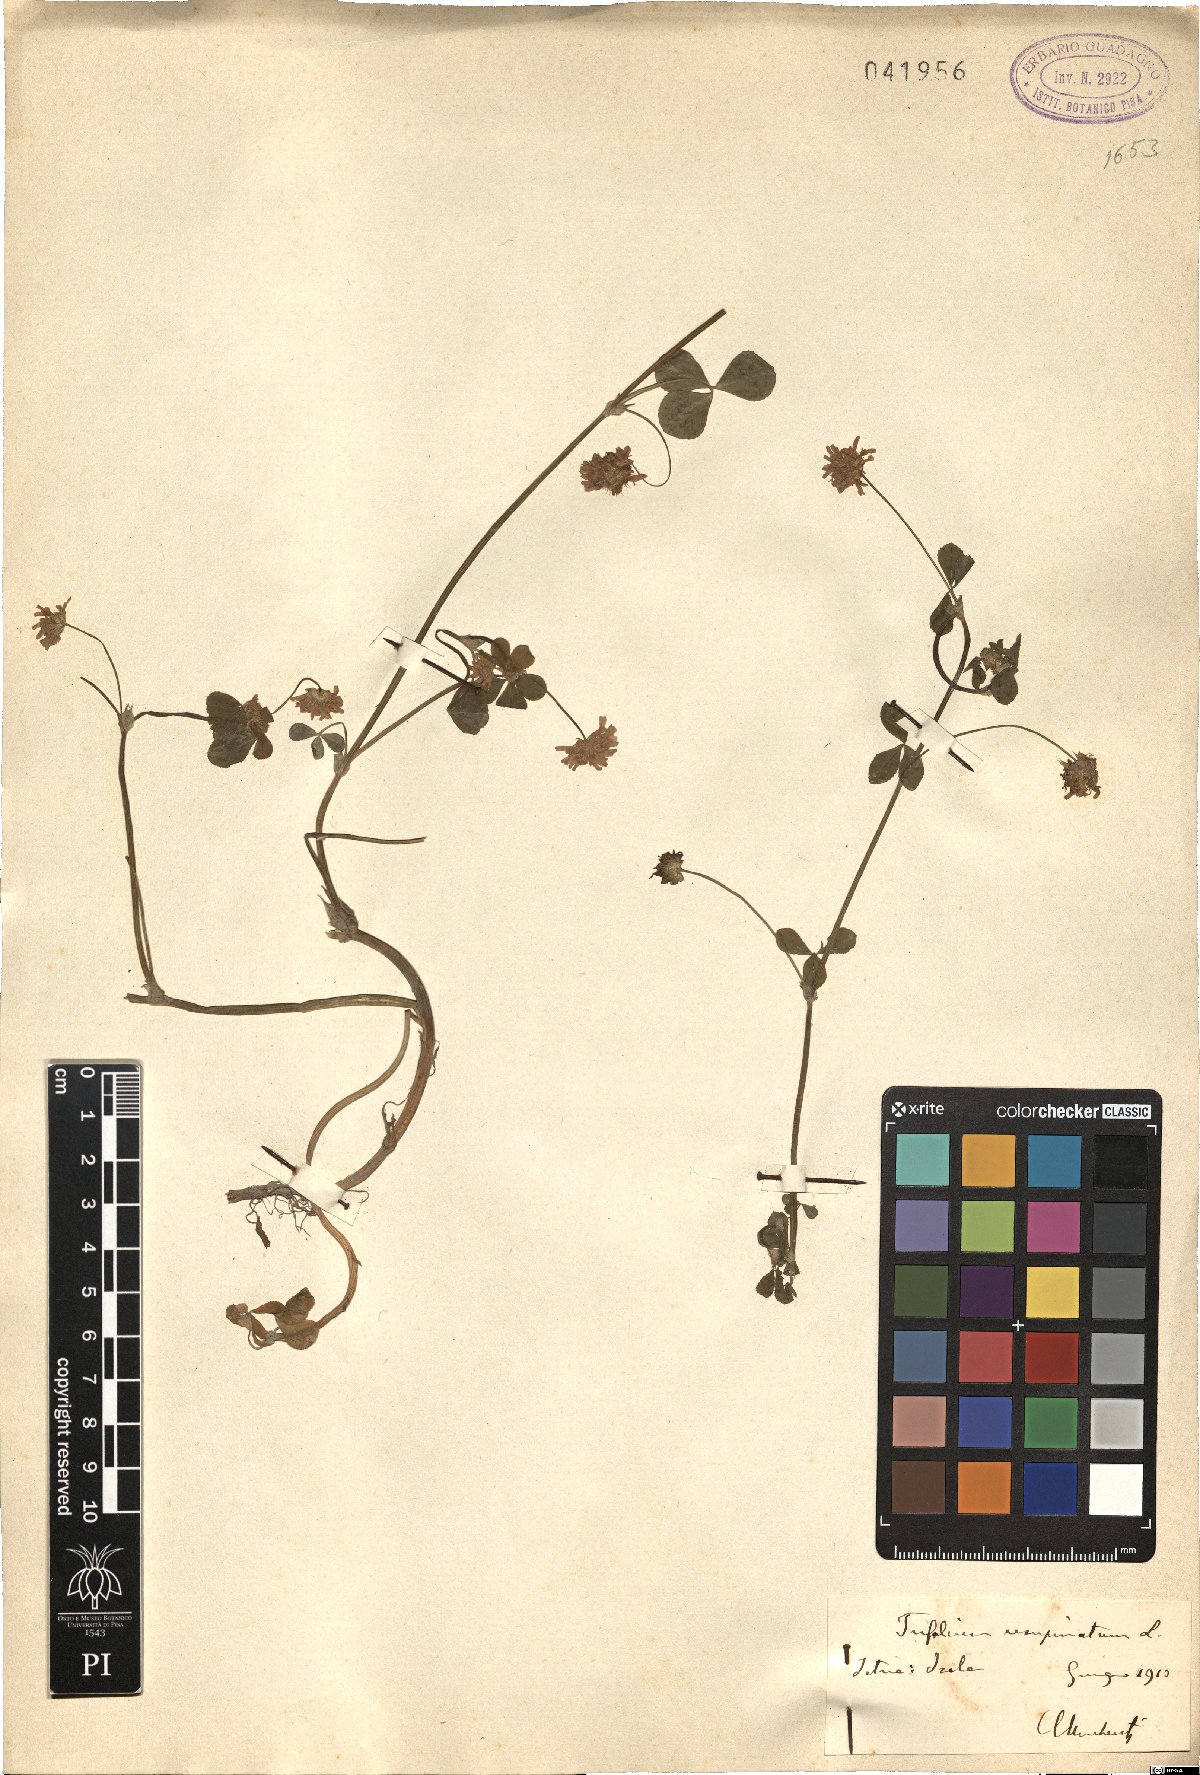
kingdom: Plantae
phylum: Tracheophyta
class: Magnoliopsida
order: Fabales
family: Fabaceae
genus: Trifolium
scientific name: Trifolium resupinatum
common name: Reversed clover
